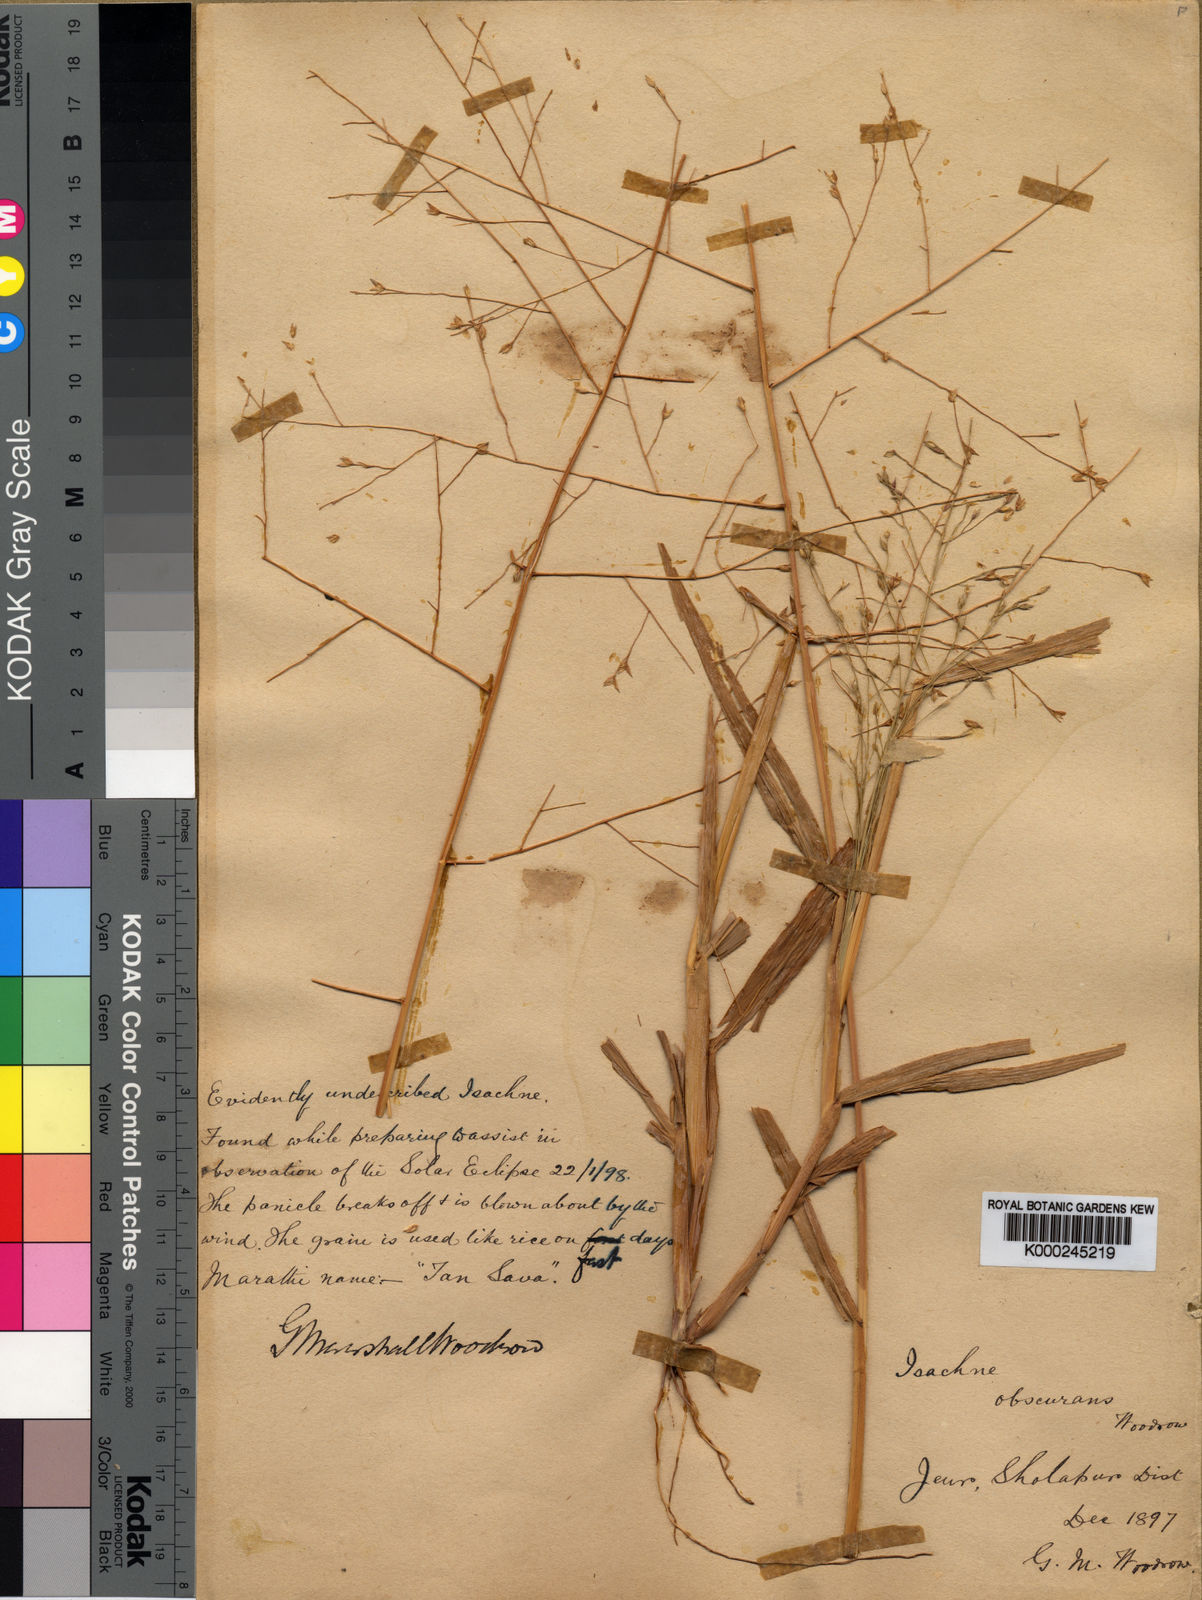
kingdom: Plantae
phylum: Tracheophyta
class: Liliopsida
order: Poales
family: Poaceae
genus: Panicum
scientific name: Panicum hippothrix
